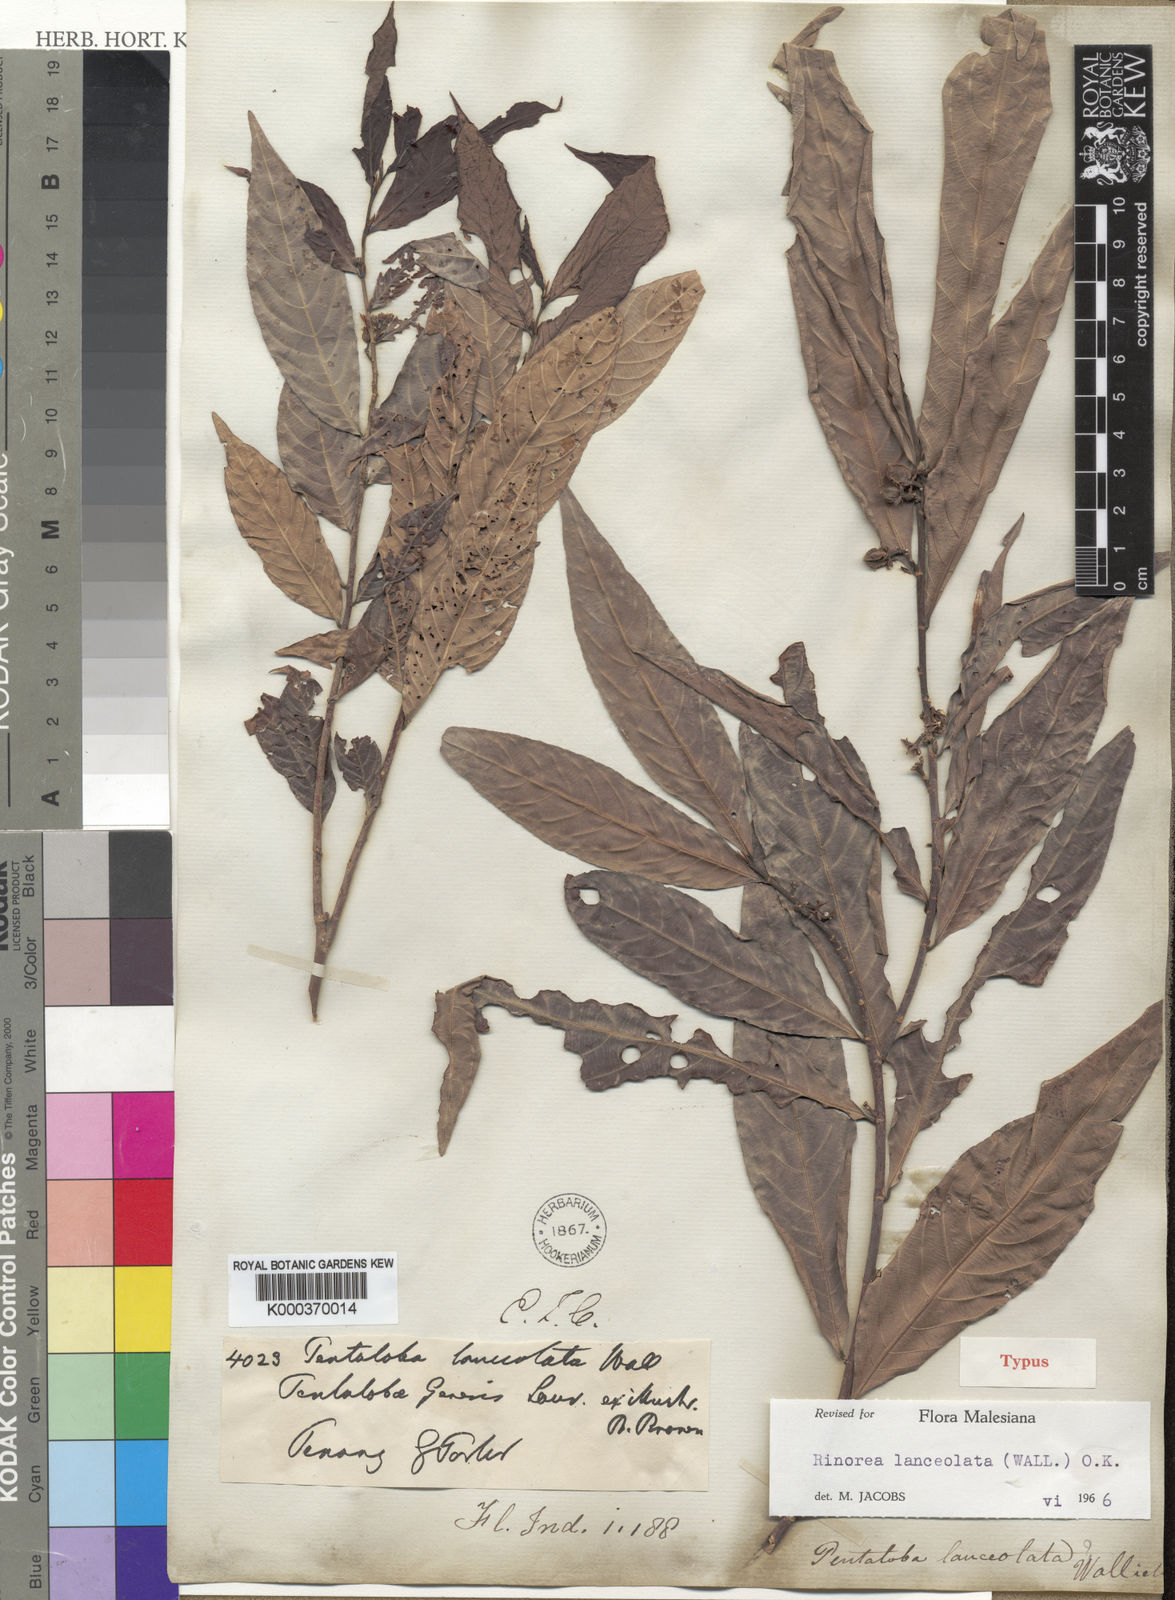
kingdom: Plantae
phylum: Tracheophyta
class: Magnoliopsida
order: Malpighiales
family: Violaceae
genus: Rinorea
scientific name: Rinorea lanceolata
